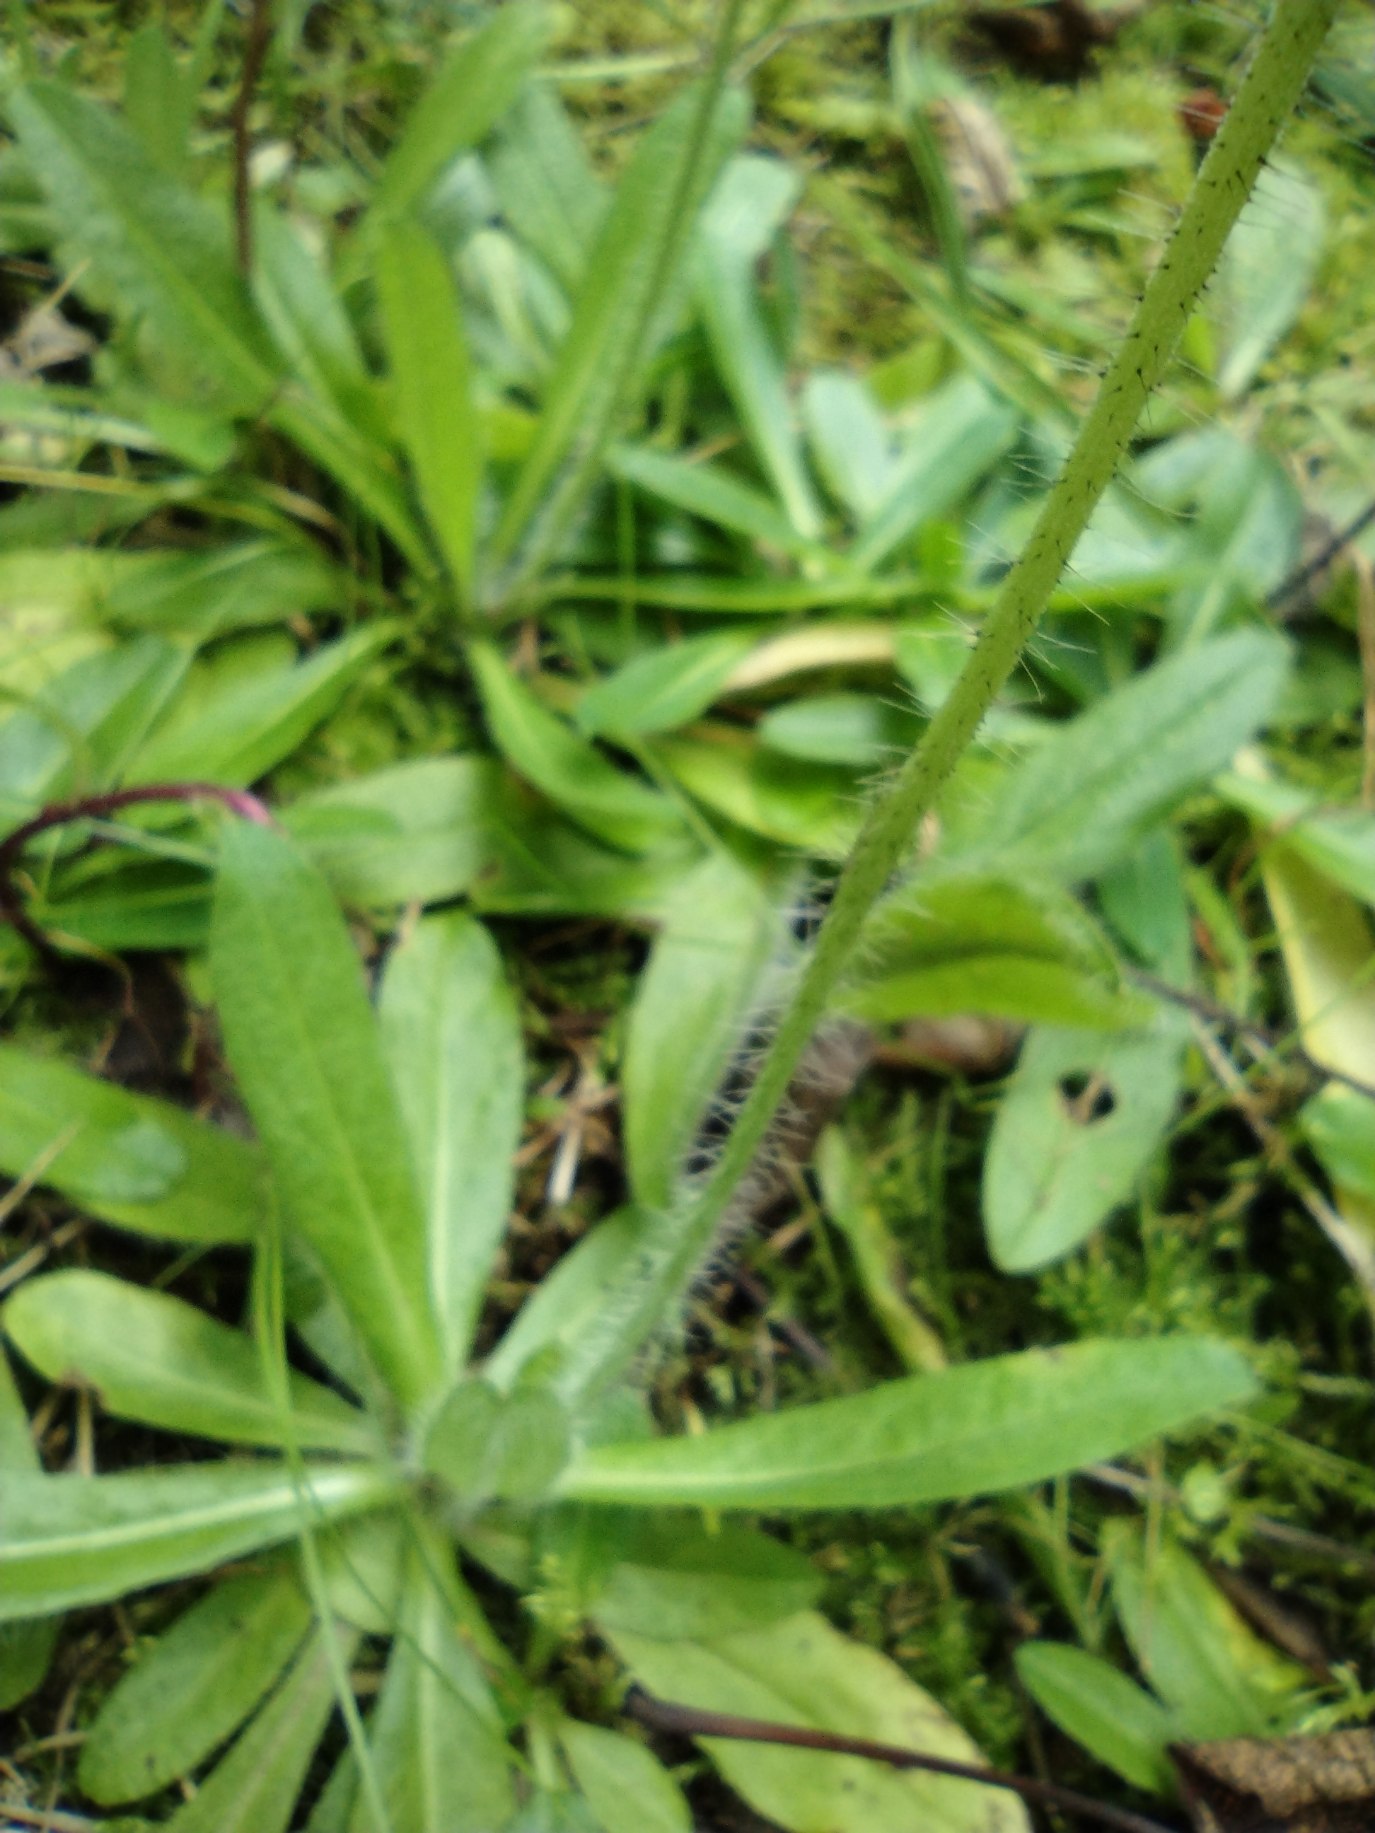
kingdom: Plantae
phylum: Tracheophyta
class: Magnoliopsida
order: Asterales
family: Asteraceae
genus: Pilosella
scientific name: Pilosella aurantiaca
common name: Pomerans-høgeurt
